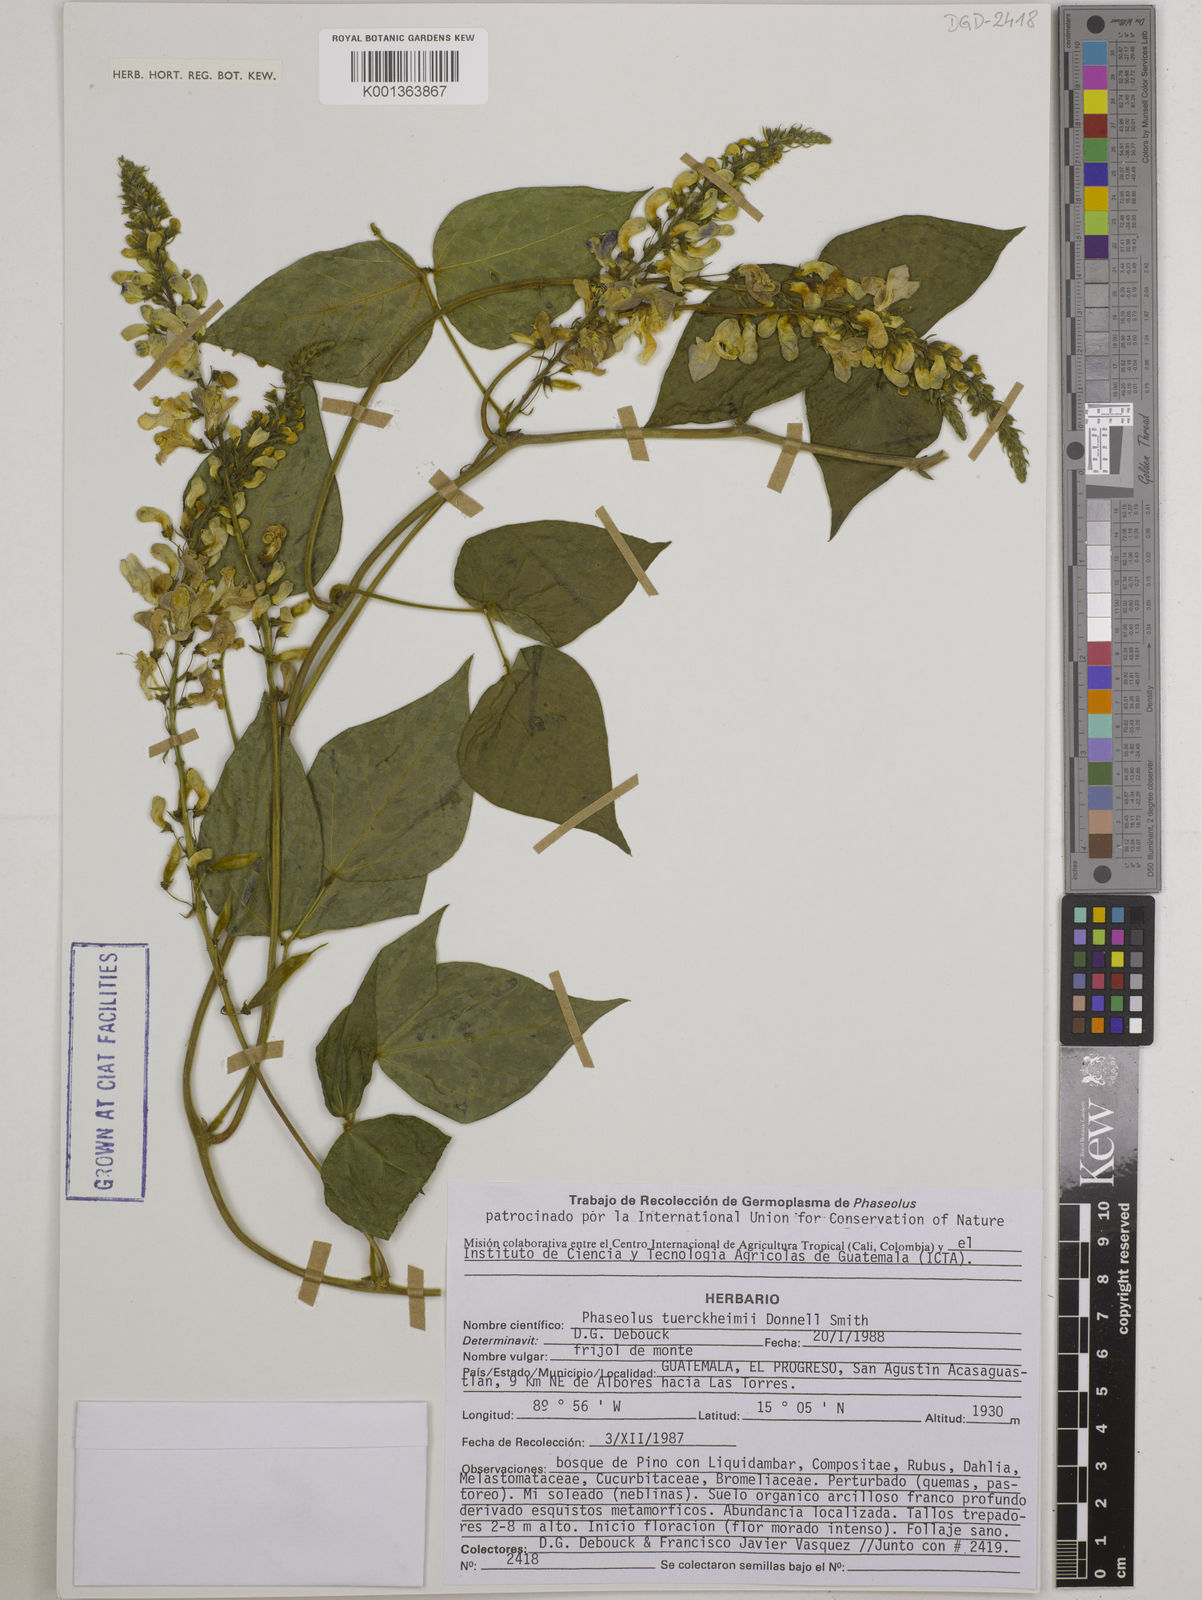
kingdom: Plantae
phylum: Tracheophyta
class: Magnoliopsida
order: Fabales
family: Fabaceae
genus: Phaseolus
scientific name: Phaseolus tuerckheimii
